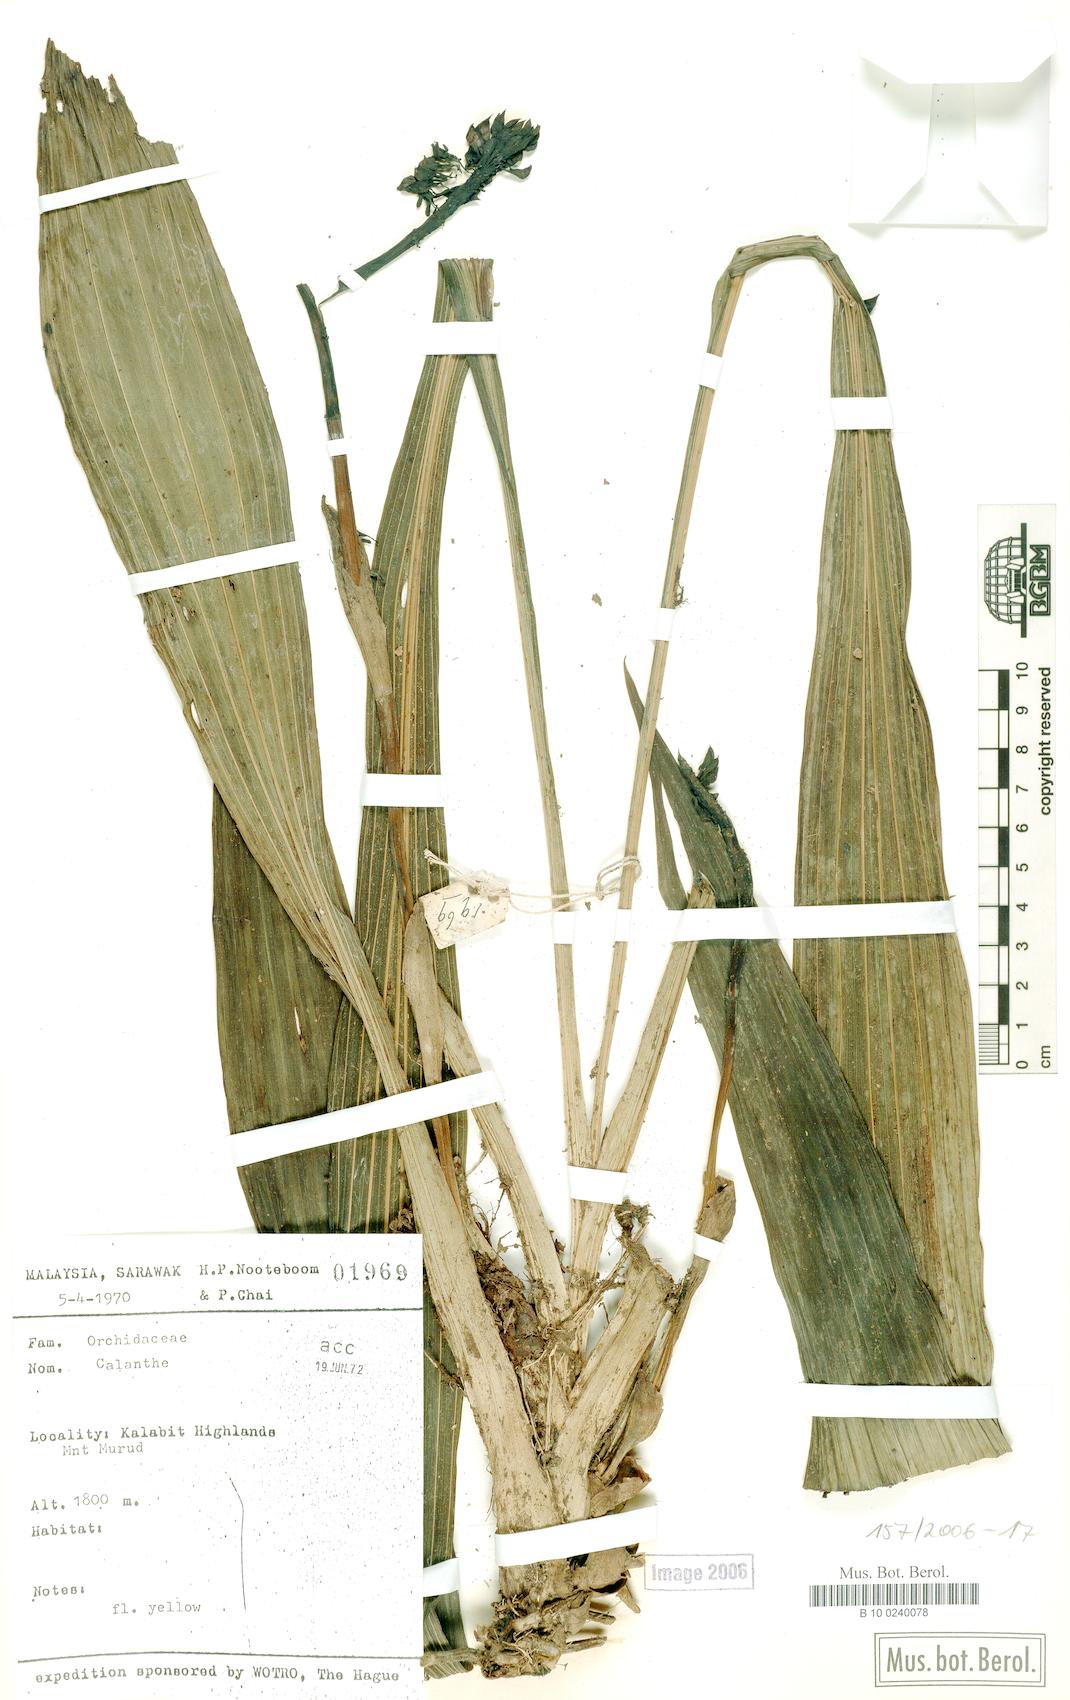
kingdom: Plantae
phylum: Tracheophyta
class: Liliopsida
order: Asparagales
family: Orchidaceae
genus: Calanthe
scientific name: Calanthe
